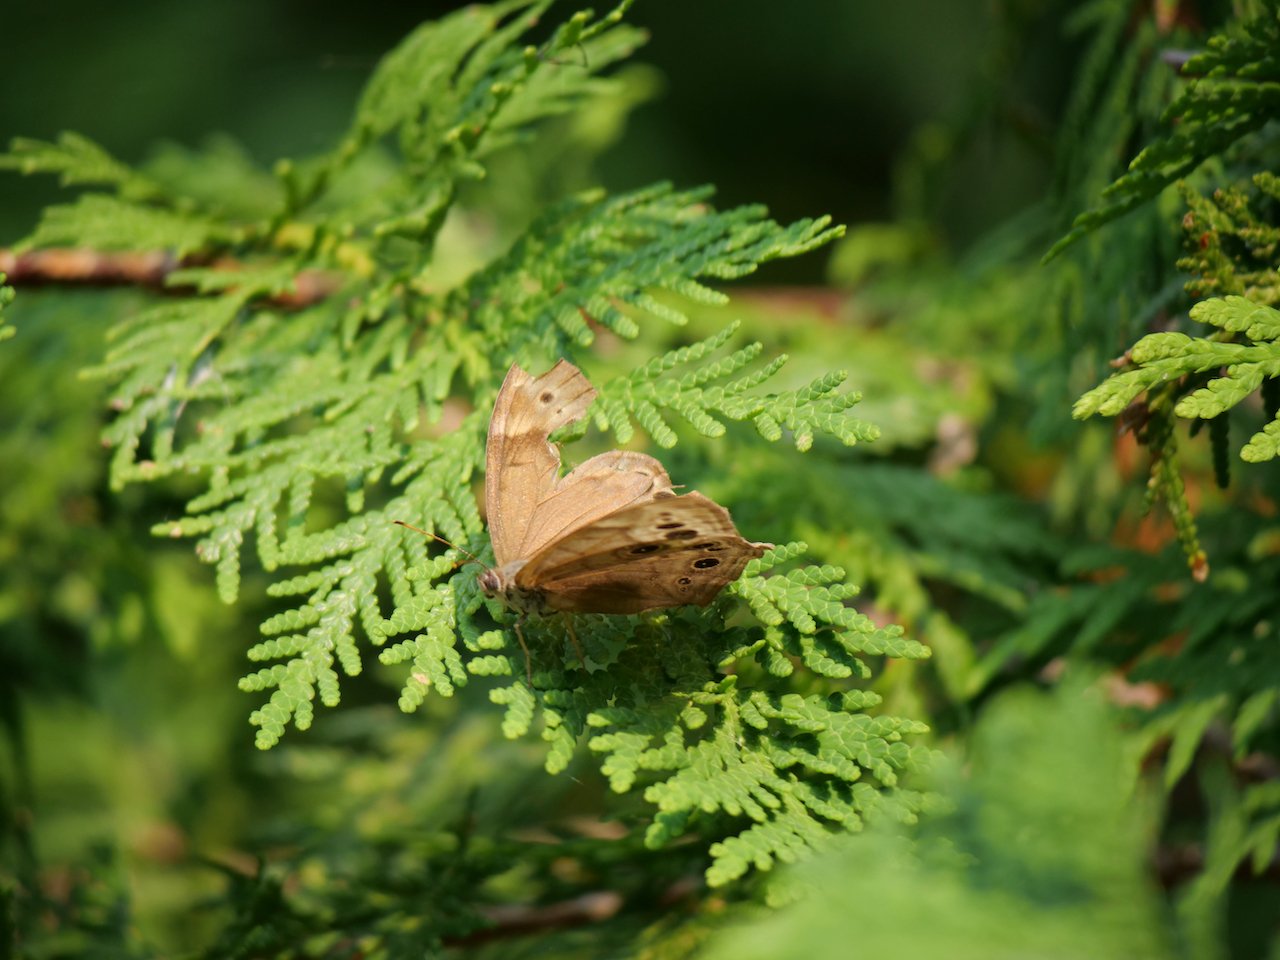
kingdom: Animalia
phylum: Arthropoda
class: Insecta
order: Lepidoptera
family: Nymphalidae
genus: Lethe
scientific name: Lethe anthedon
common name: Northern Pearly-Eye
